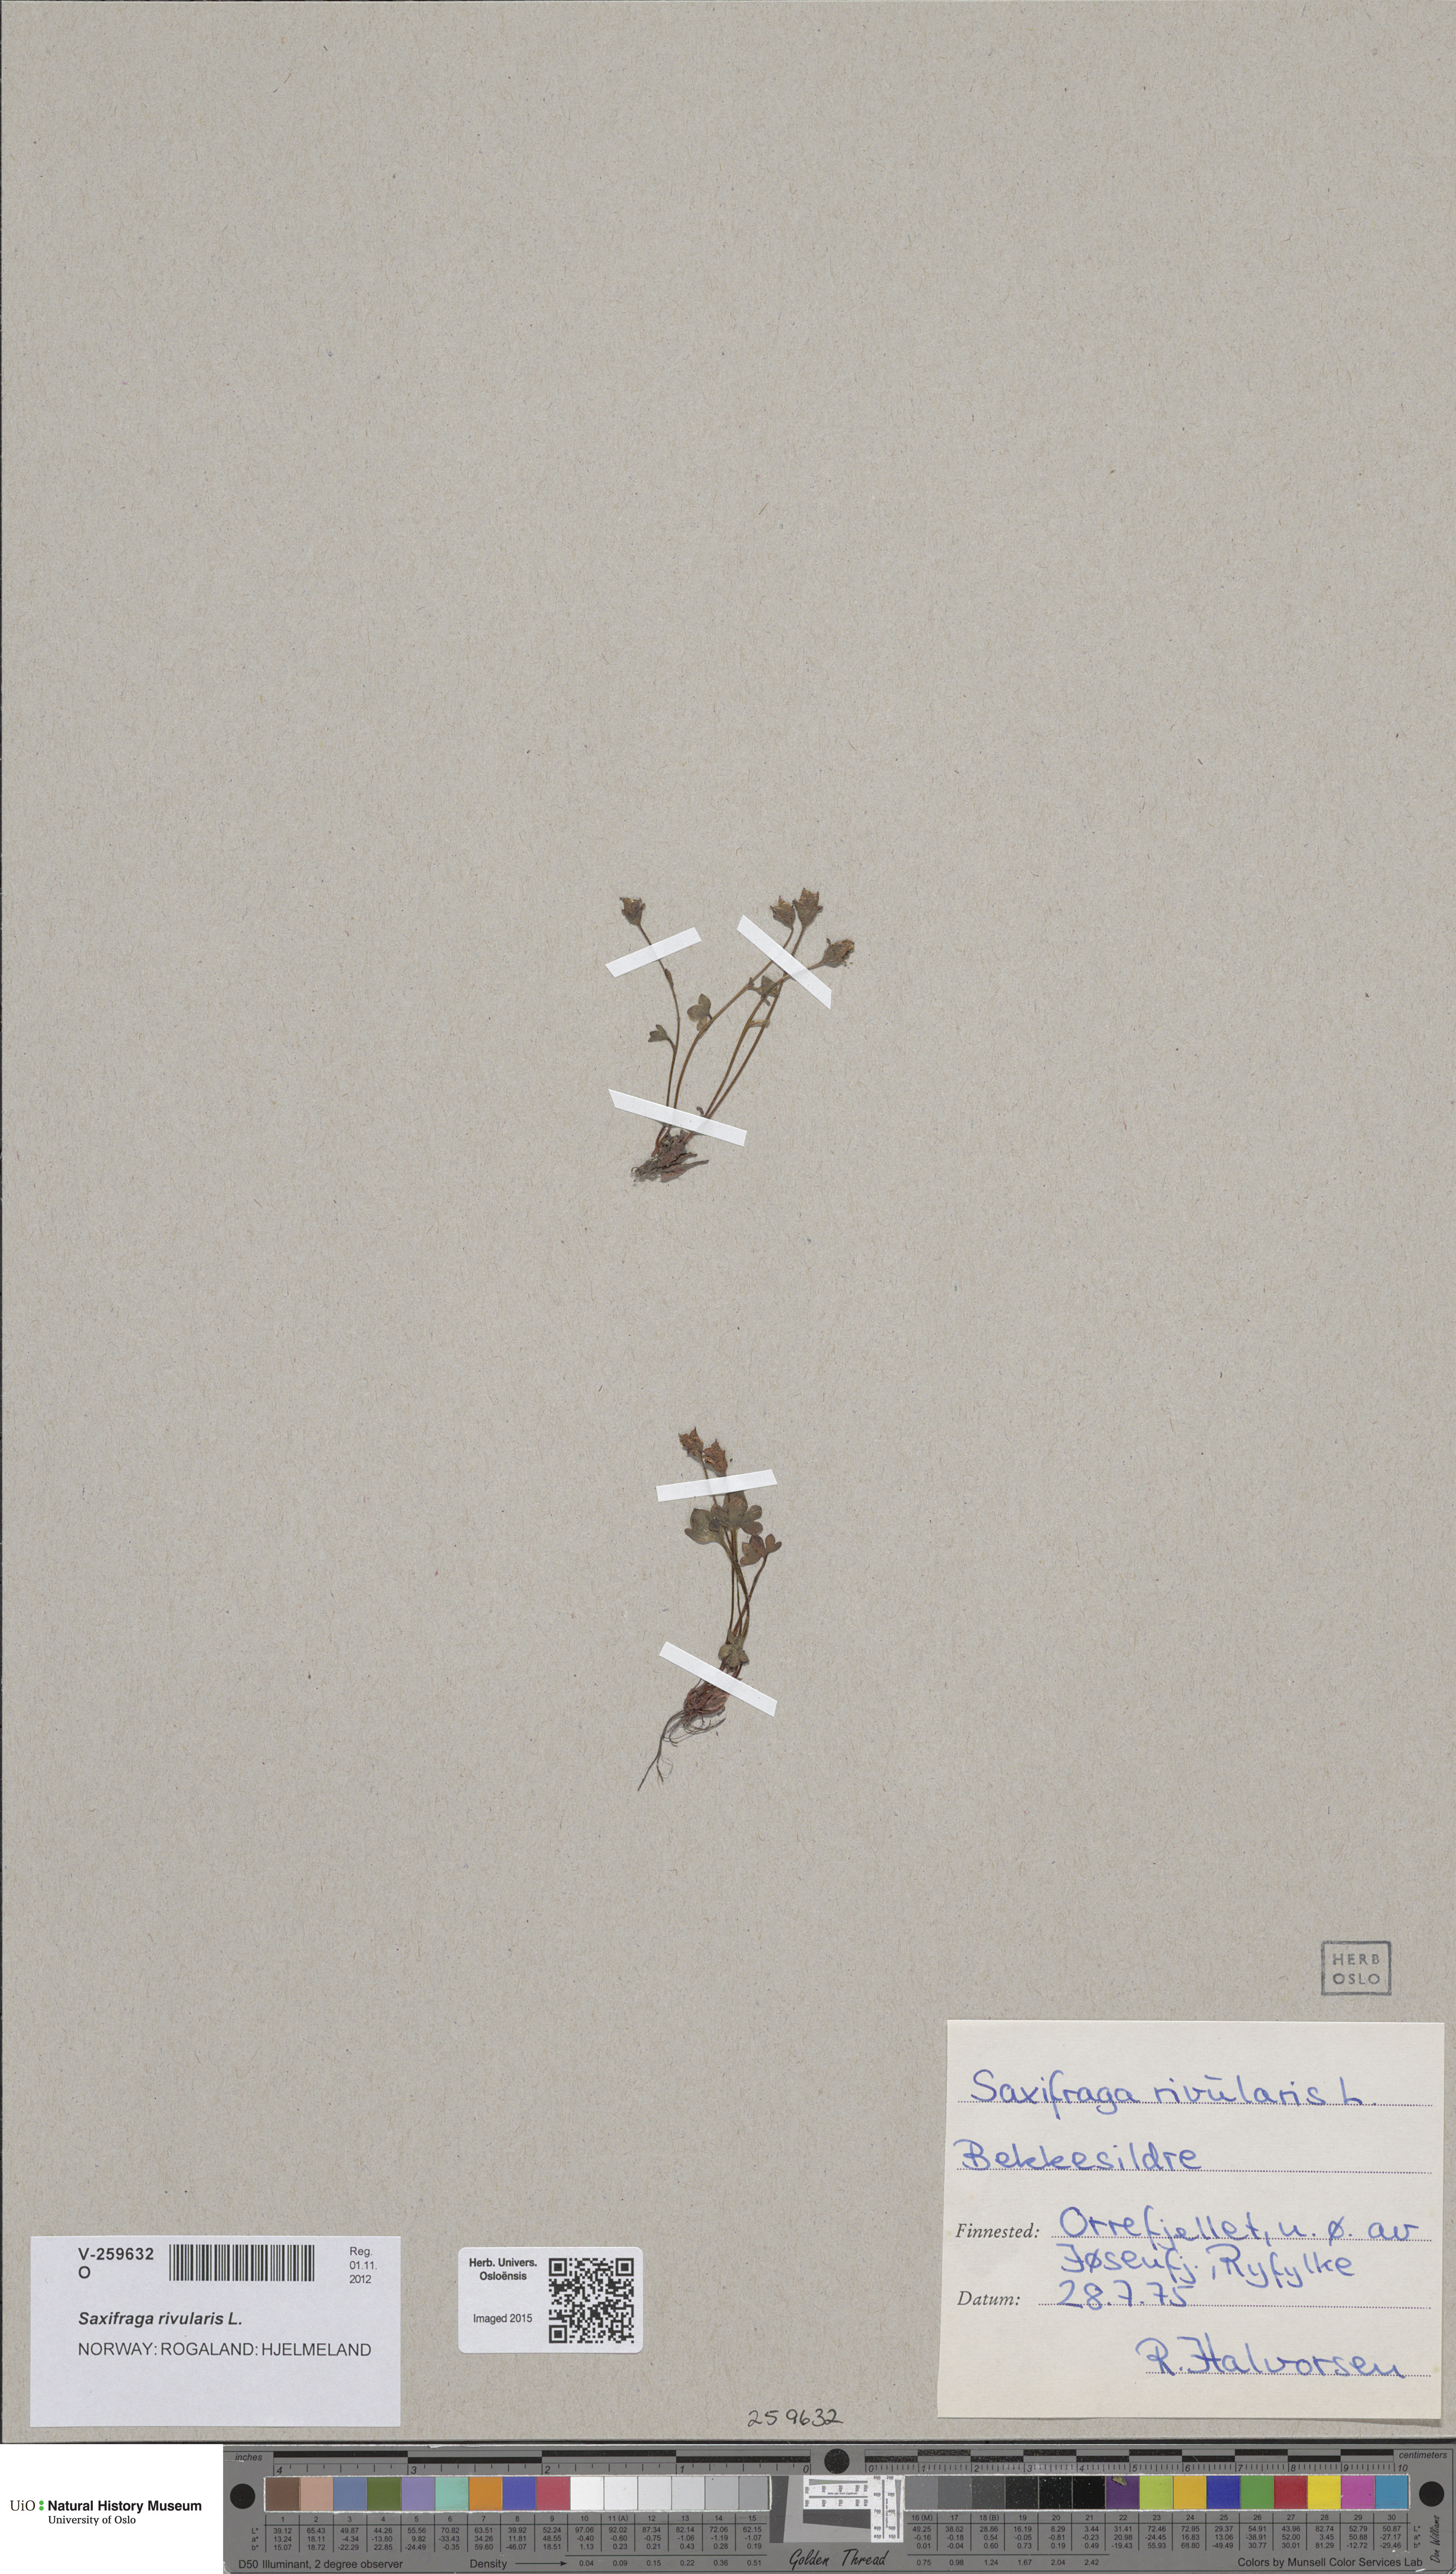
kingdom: Plantae
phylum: Tracheophyta
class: Magnoliopsida
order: Saxifragales
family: Saxifragaceae
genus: Saxifraga
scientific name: Saxifraga rivularis
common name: Highland saxifrage
